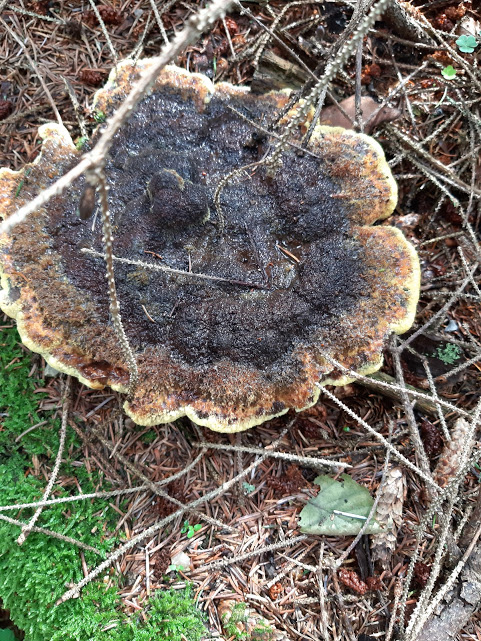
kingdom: Fungi
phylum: Basidiomycota
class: Agaricomycetes
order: Polyporales
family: Laetiporaceae
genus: Phaeolus
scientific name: Phaeolus schweinitzii
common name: brunporesvamp
